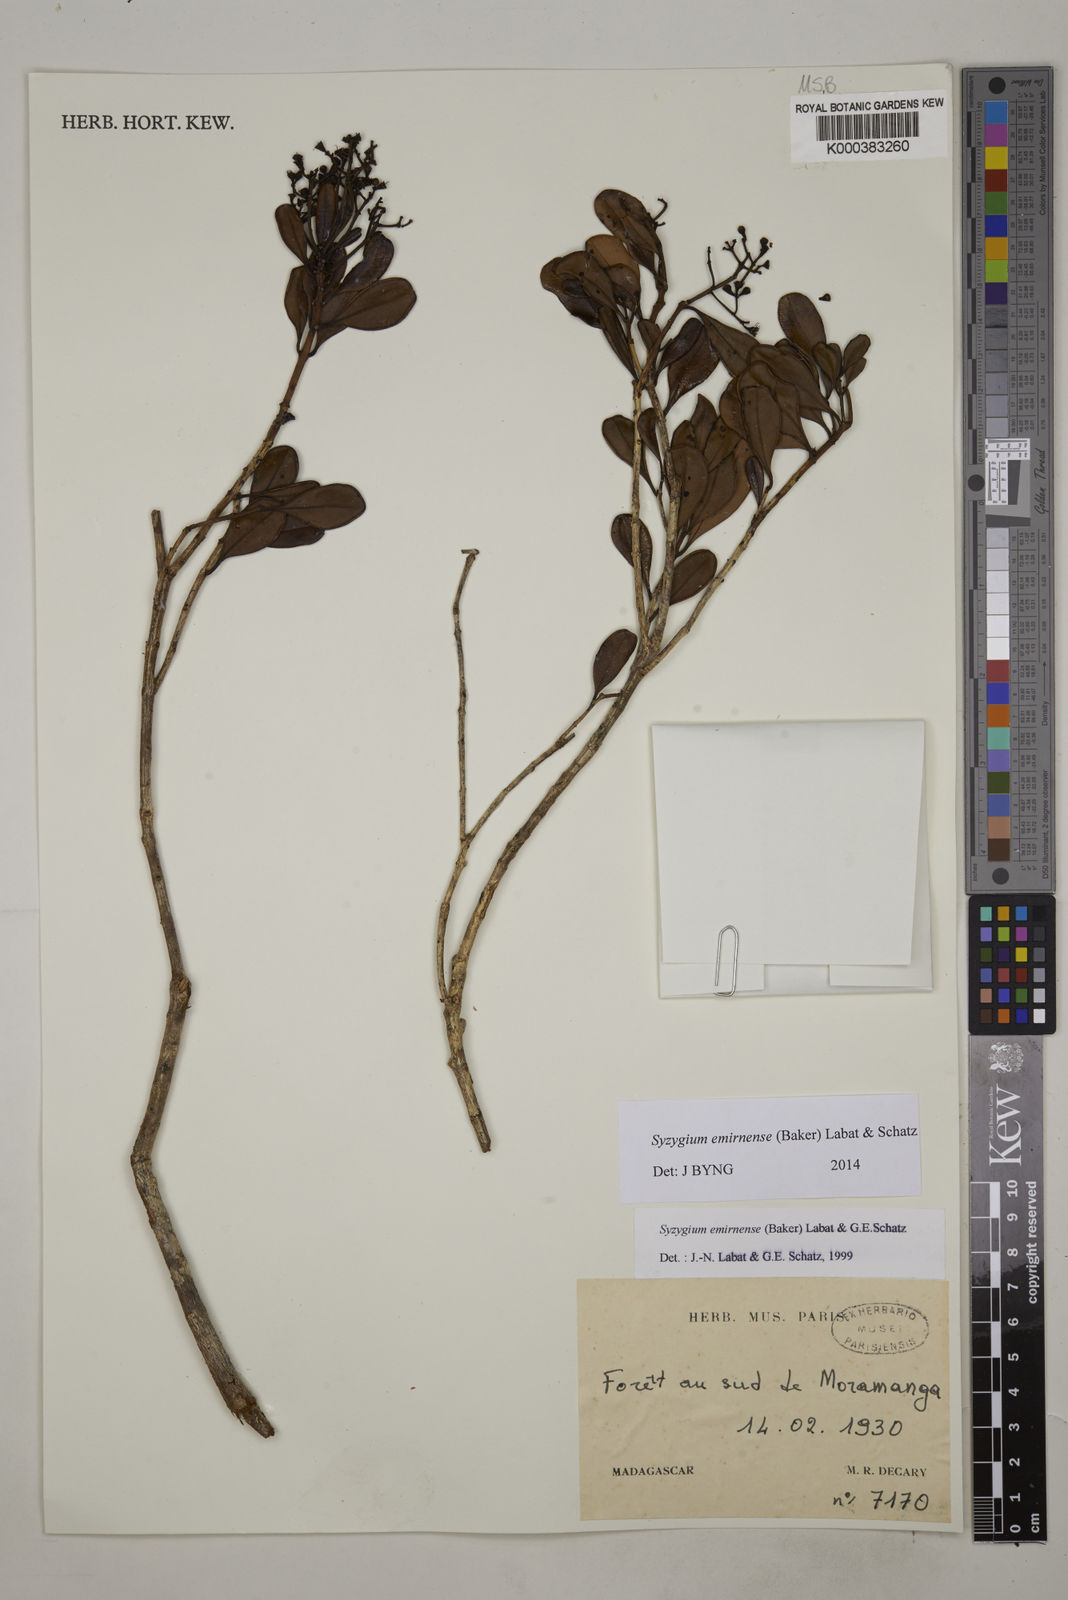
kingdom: Plantae
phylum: Tracheophyta
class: Magnoliopsida
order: Myrtales
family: Myrtaceae
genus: Syzygium
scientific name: Syzygium emirnense
